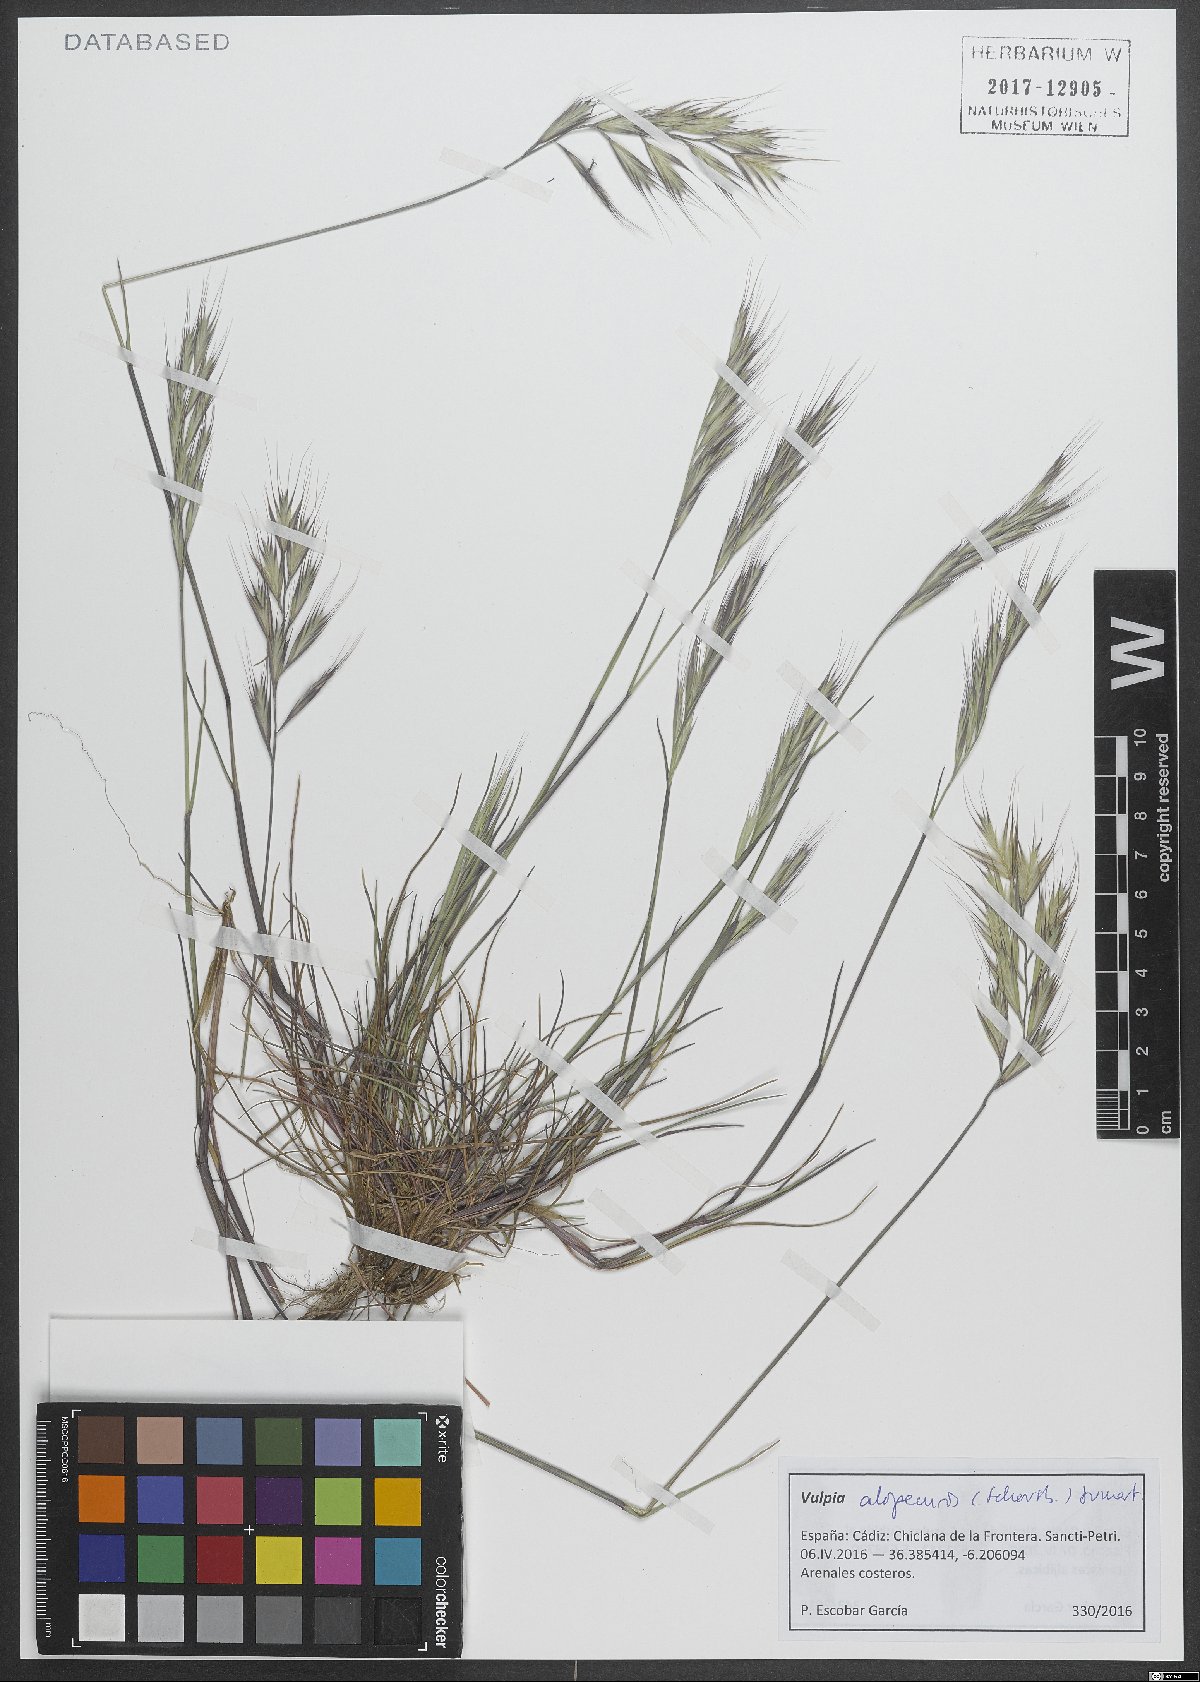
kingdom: Plantae
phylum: Tracheophyta
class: Liliopsida
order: Poales
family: Poaceae
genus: Festuca
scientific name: Festuca alopecuros
